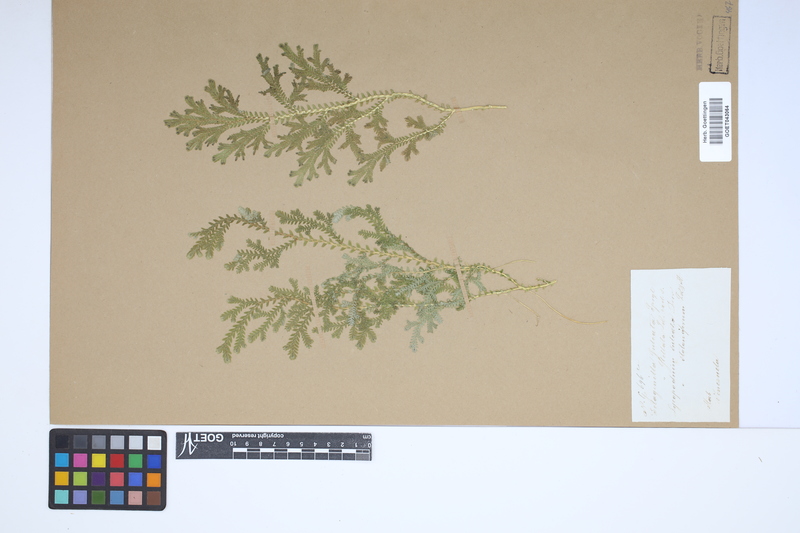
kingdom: Plantae
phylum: Tracheophyta
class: Lycopodiopsida
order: Selaginellales
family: Selaginellaceae
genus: Selaginella
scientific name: Selaginella sulcata
